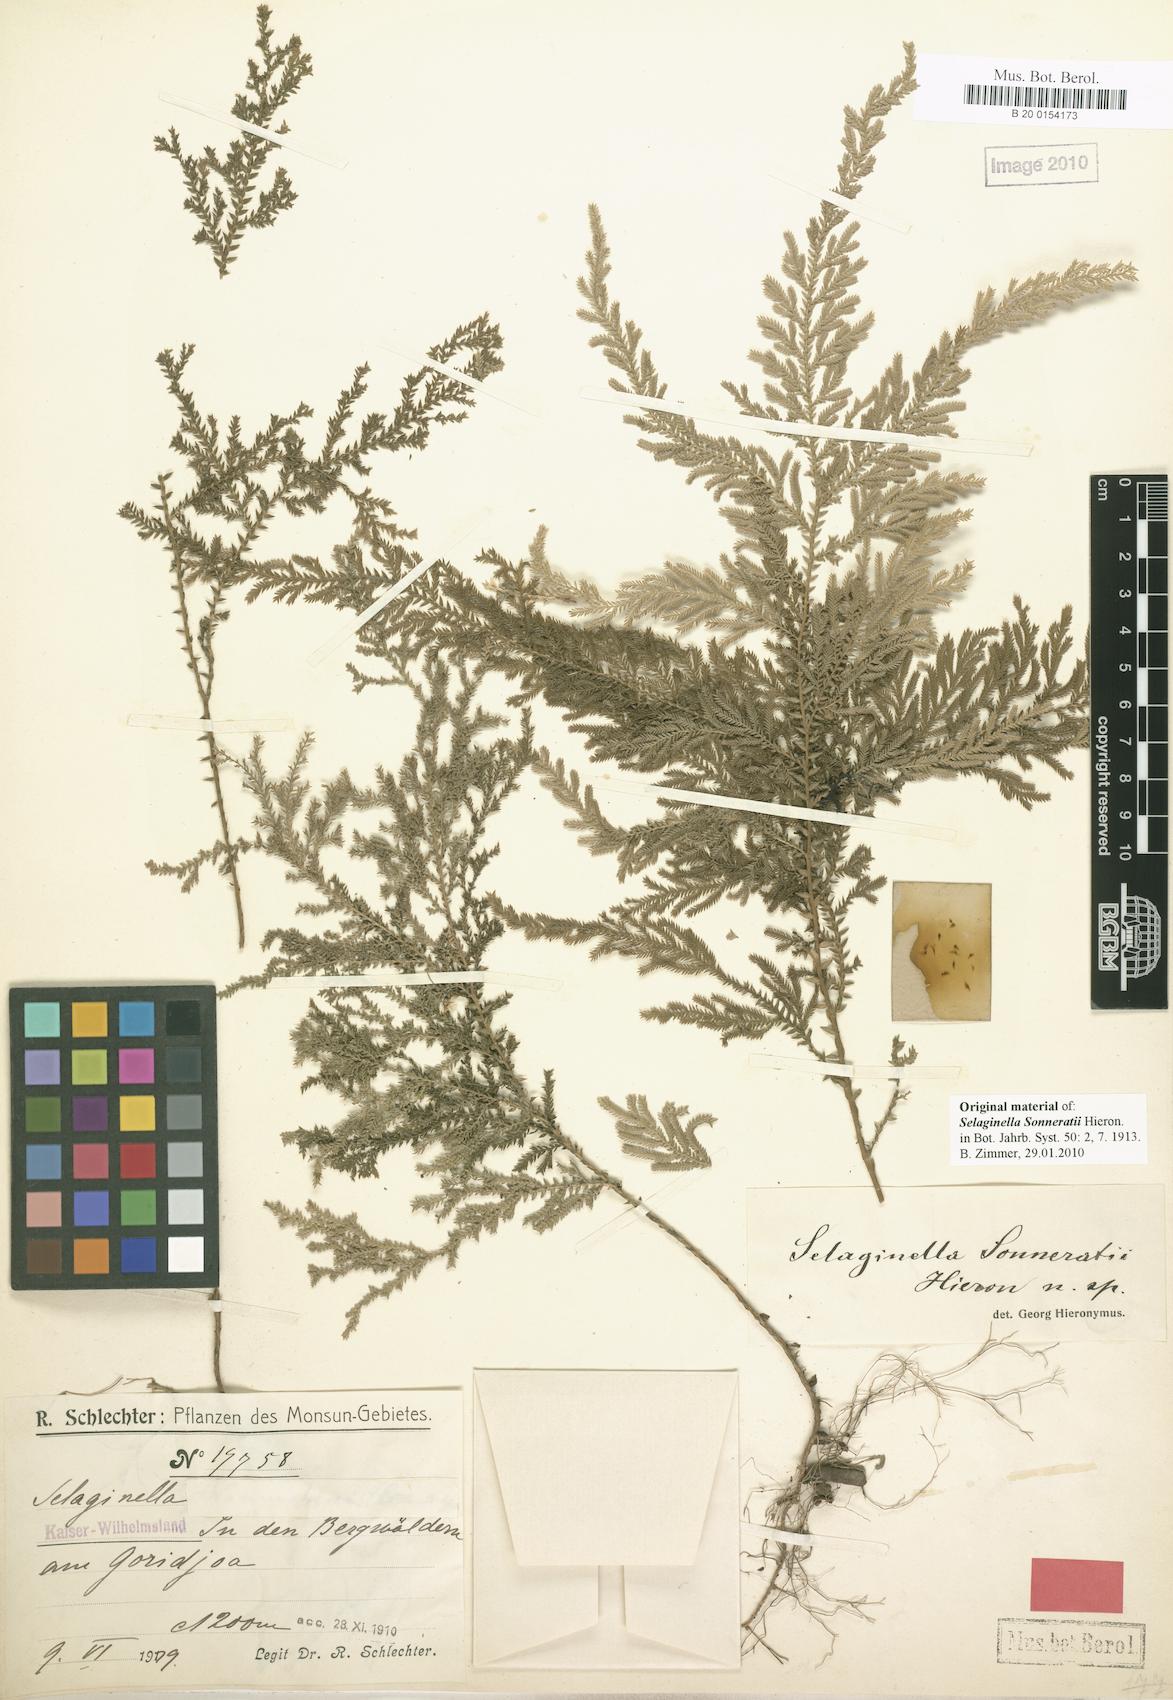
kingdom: Plantae
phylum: Tracheophyta
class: Lycopodiopsida
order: Selaginellales
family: Selaginellaceae
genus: Selaginella
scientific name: Selaginella sonneratii
